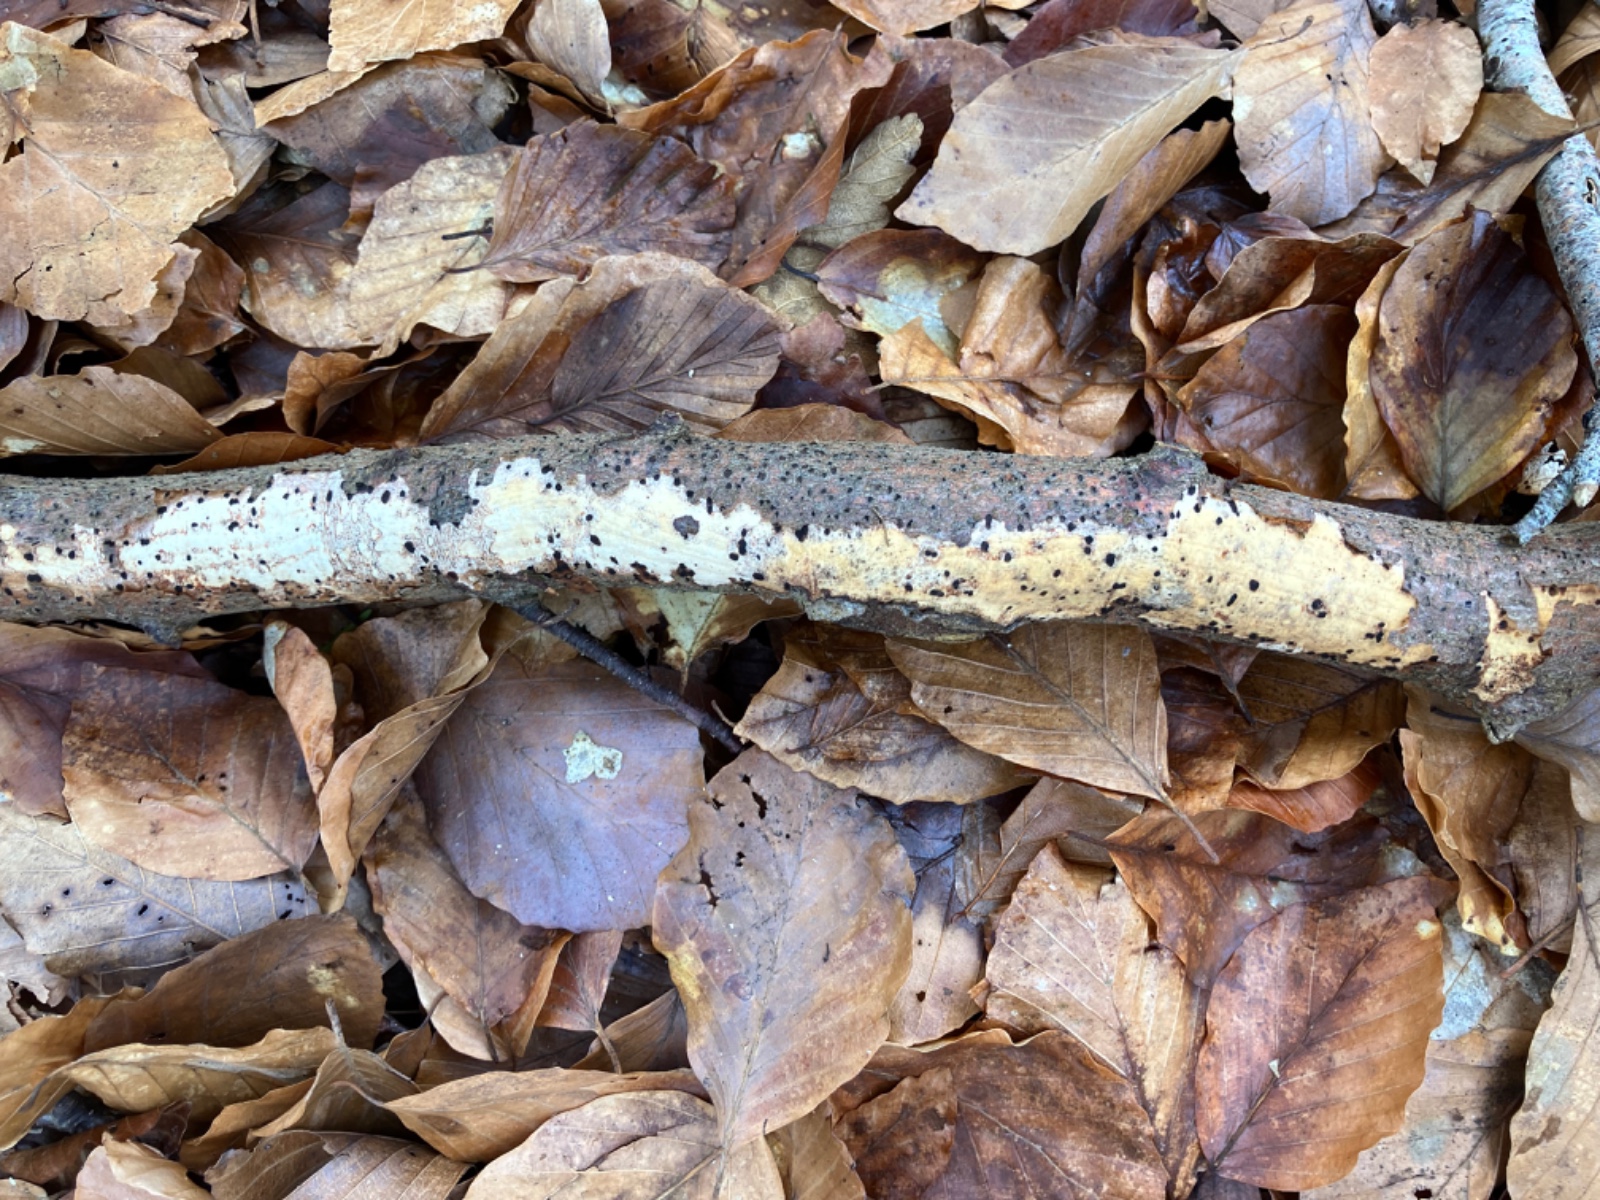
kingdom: Fungi
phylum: Basidiomycota
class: Agaricomycetes
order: Corticiales
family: Vuilleminiaceae
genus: Vuilleminia
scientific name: Vuilleminia comedens
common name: almindelig barksprænger
